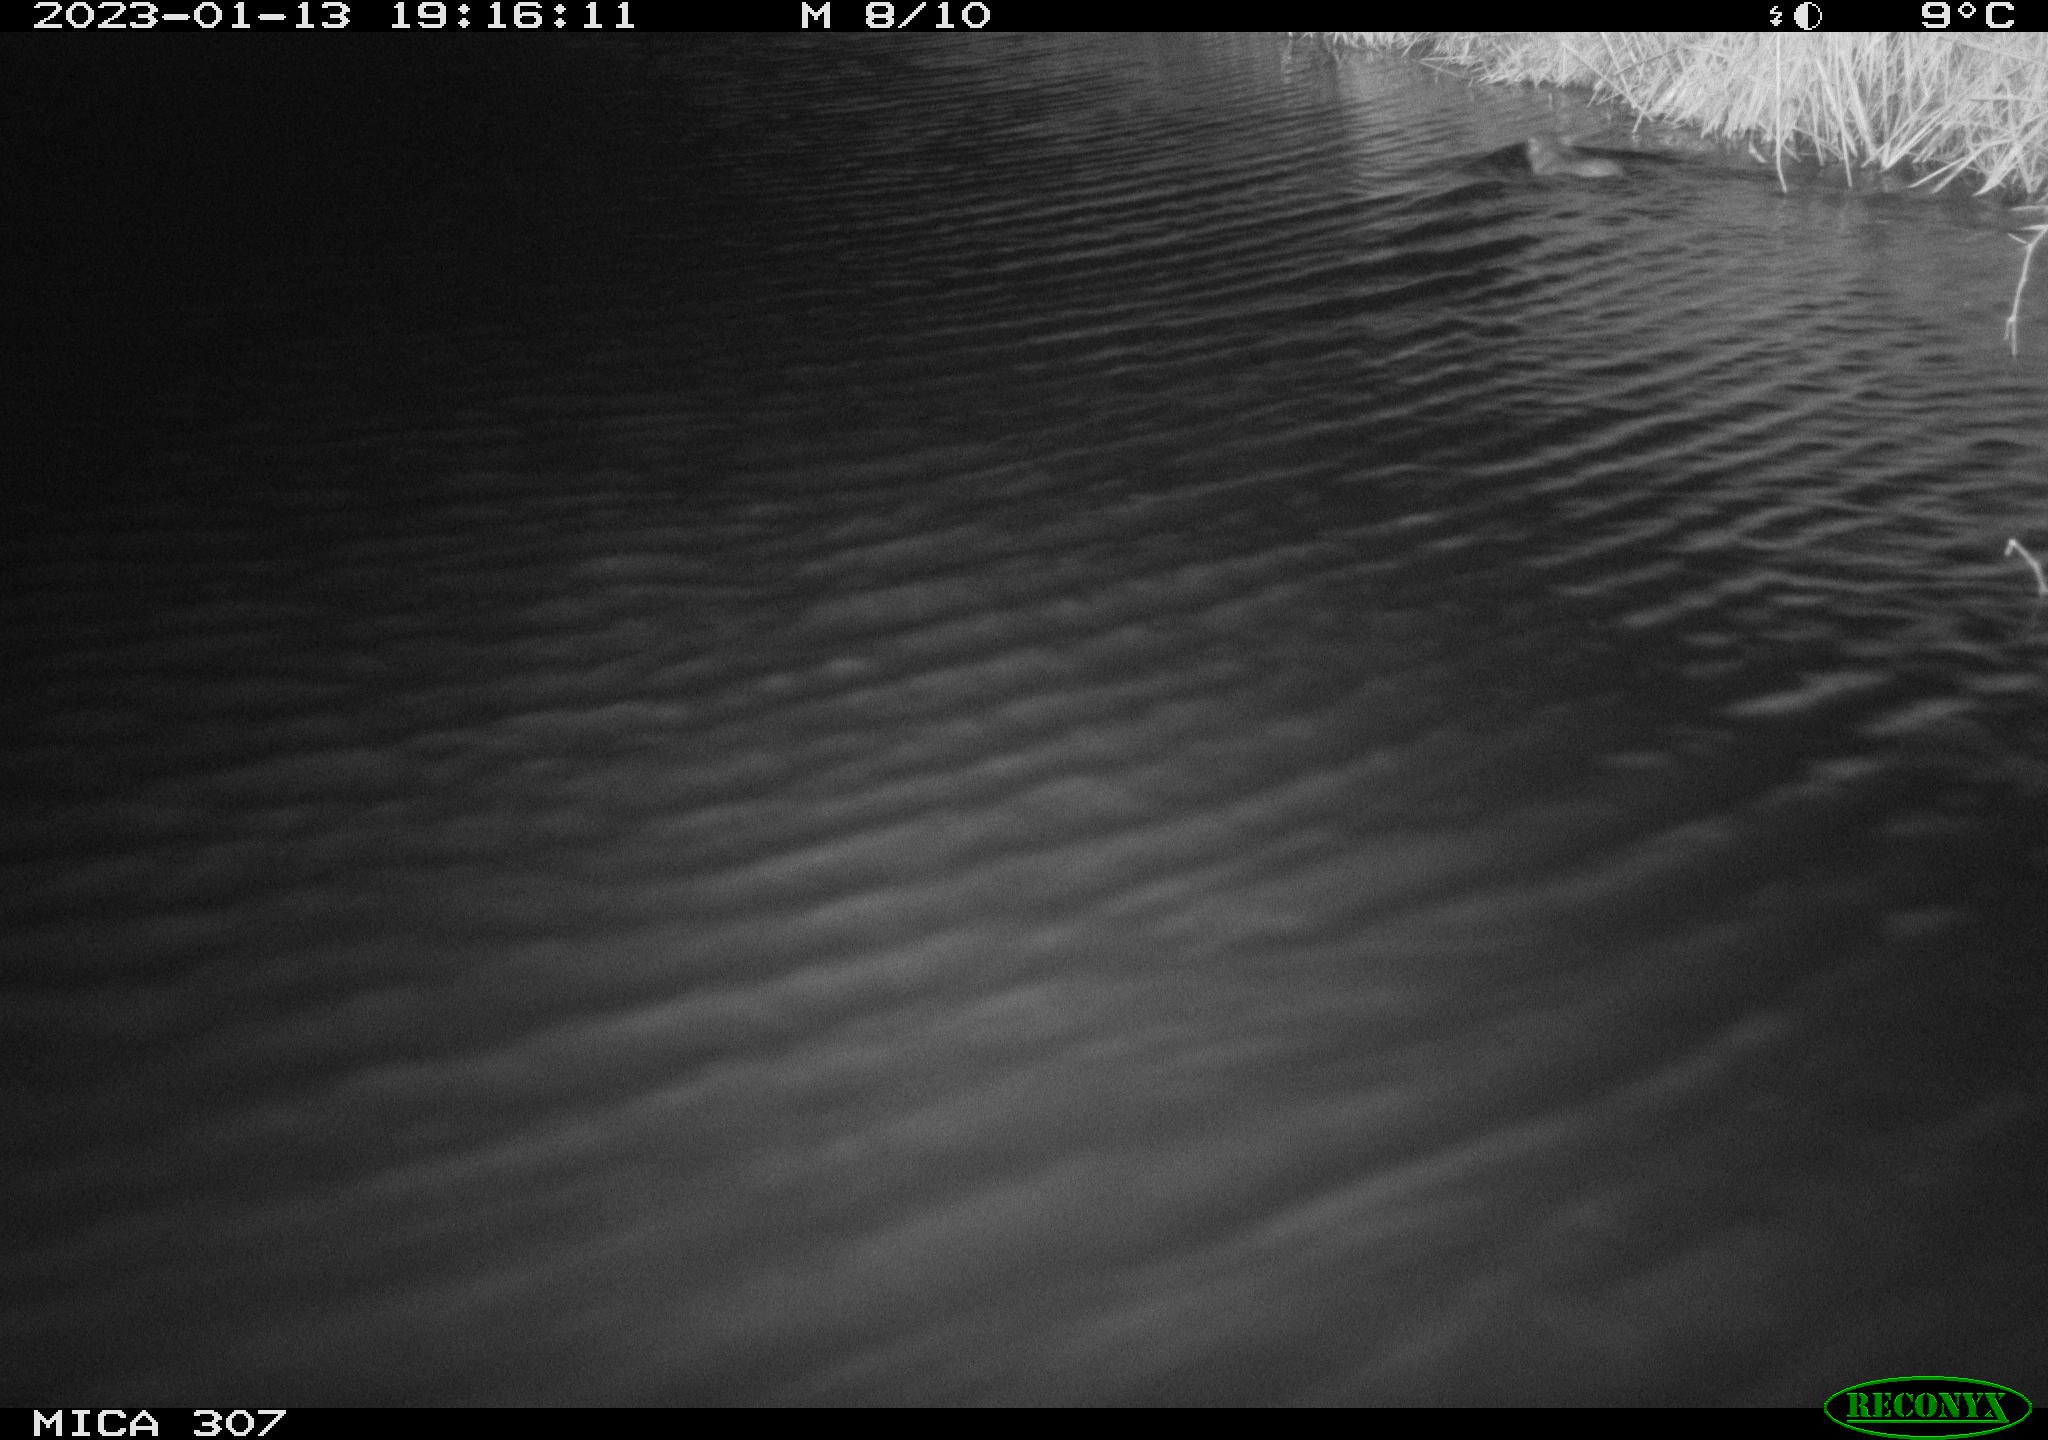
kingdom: Animalia
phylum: Chordata
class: Mammalia
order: Rodentia
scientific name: Rodentia
